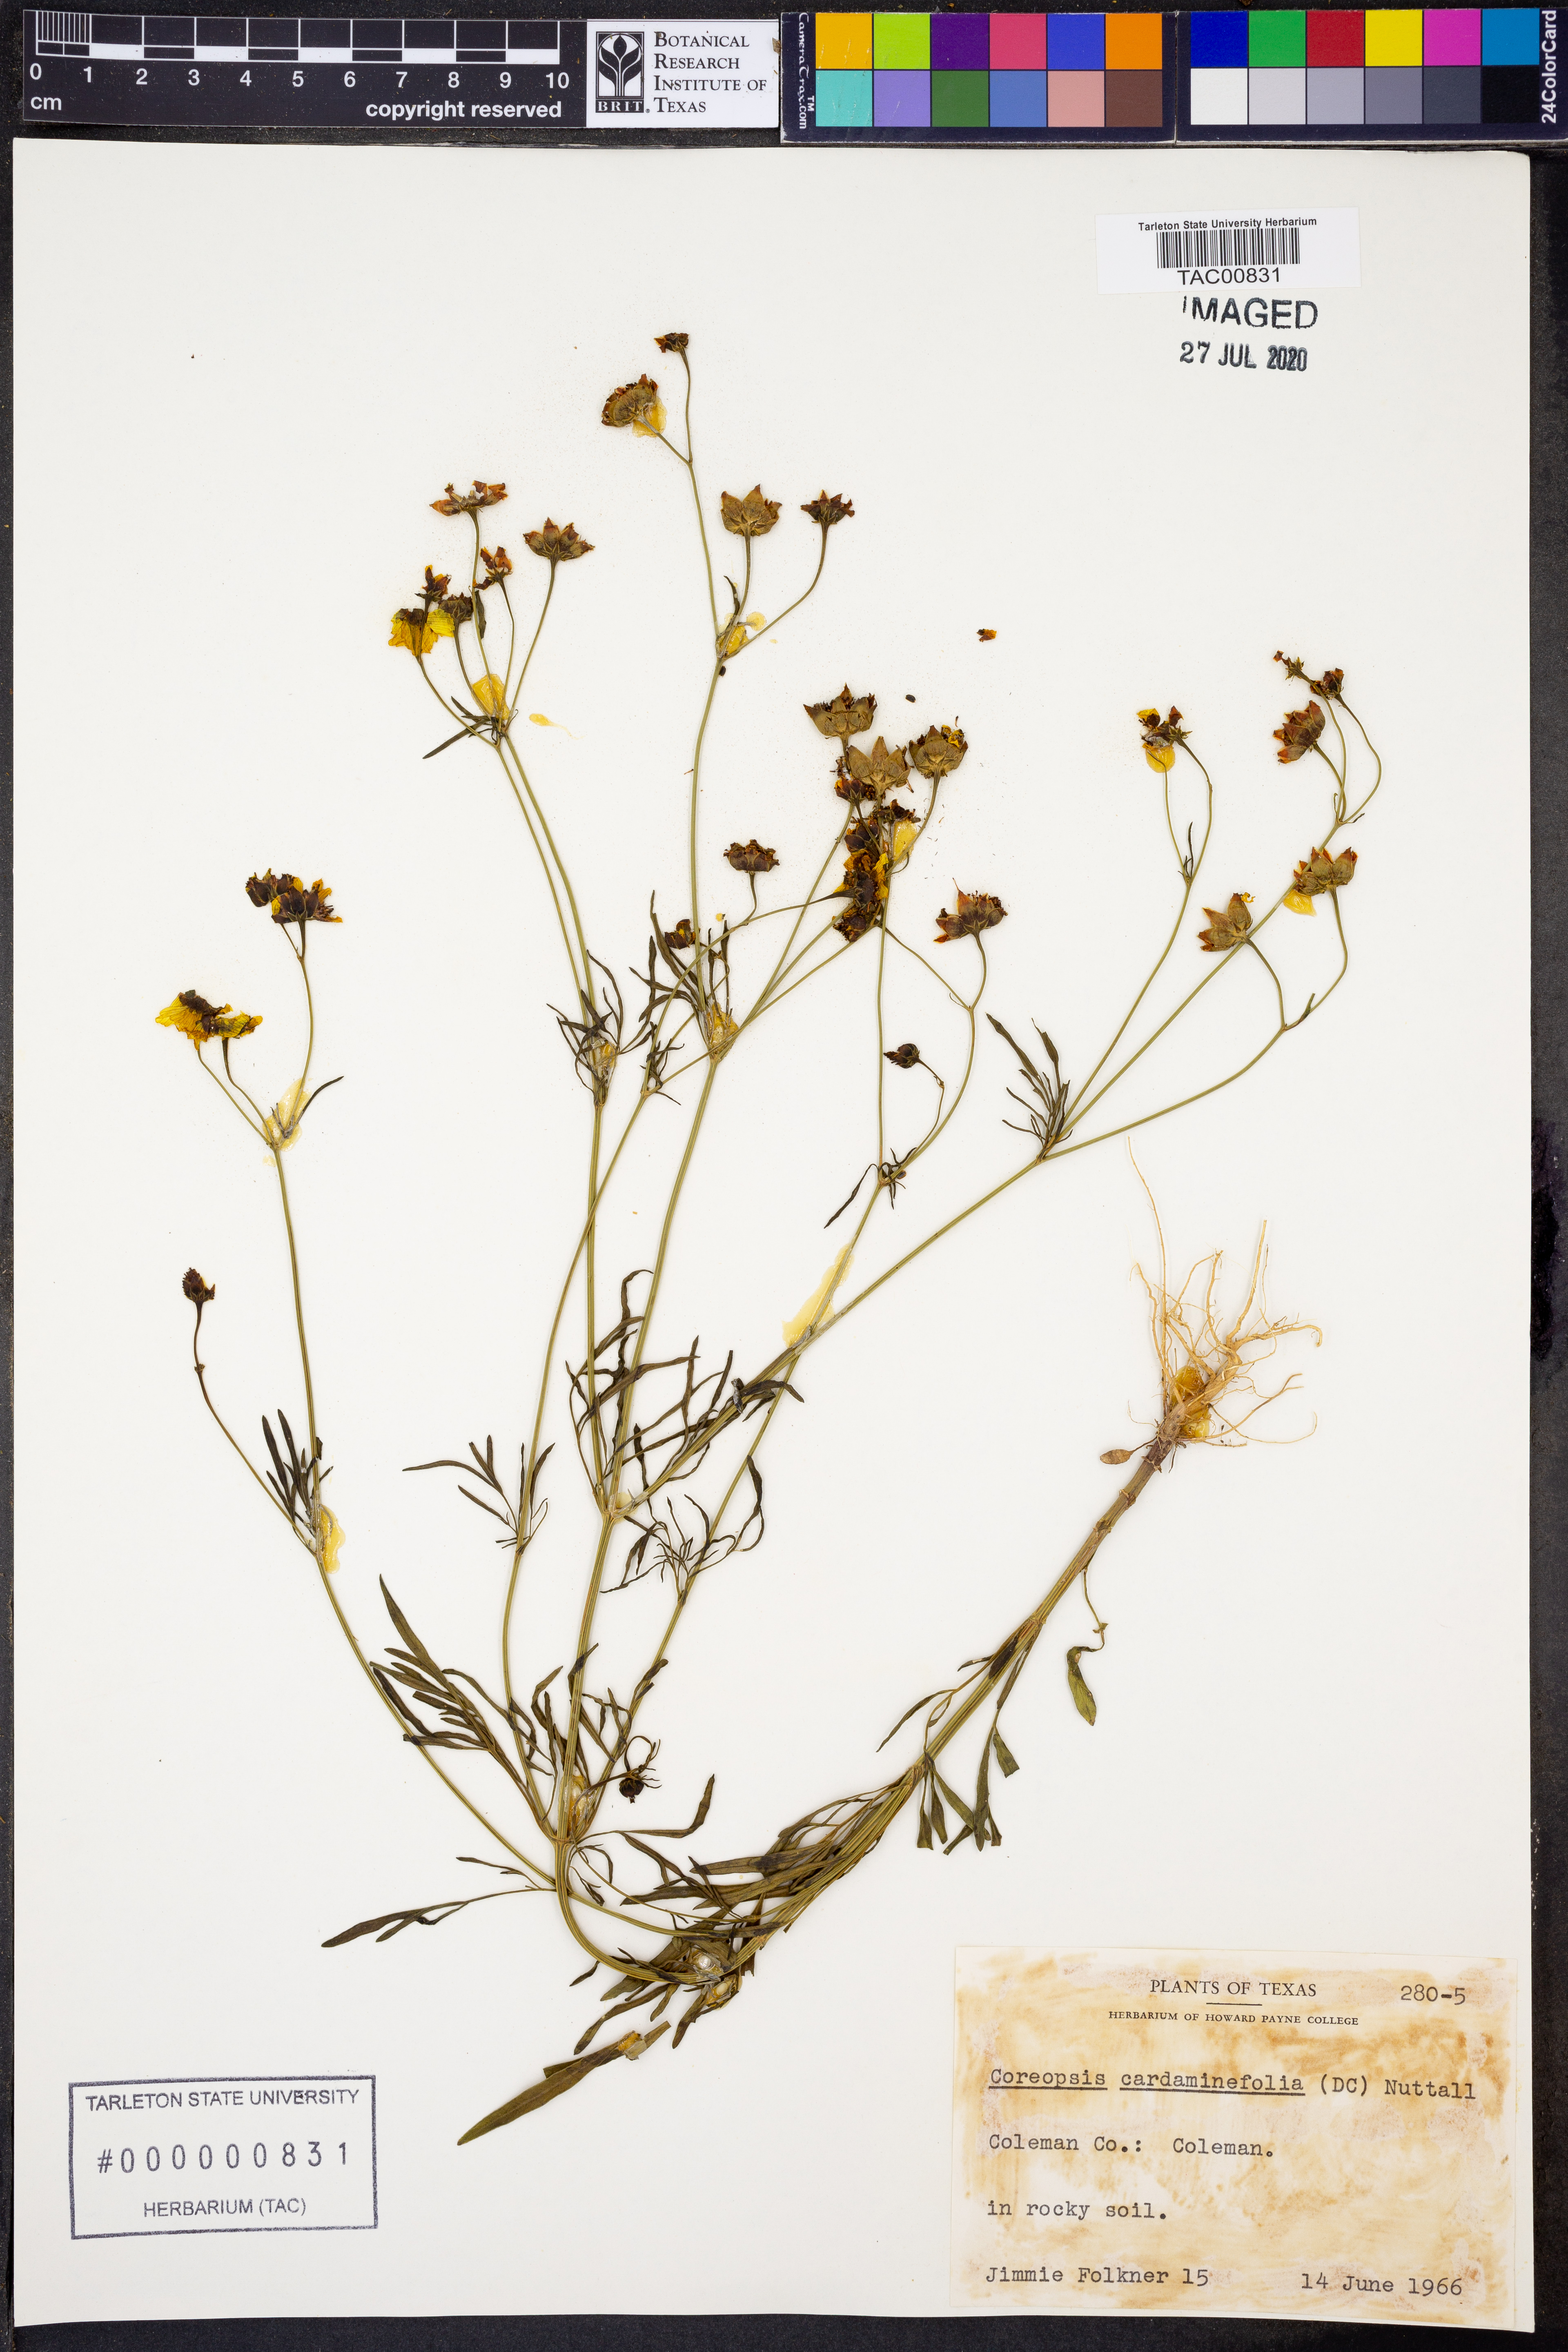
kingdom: Plantae
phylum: Tracheophyta
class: Magnoliopsida
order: Asterales
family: Asteraceae
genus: Coreopsis
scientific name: Coreopsis tinctoria
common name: Garden tickseed
